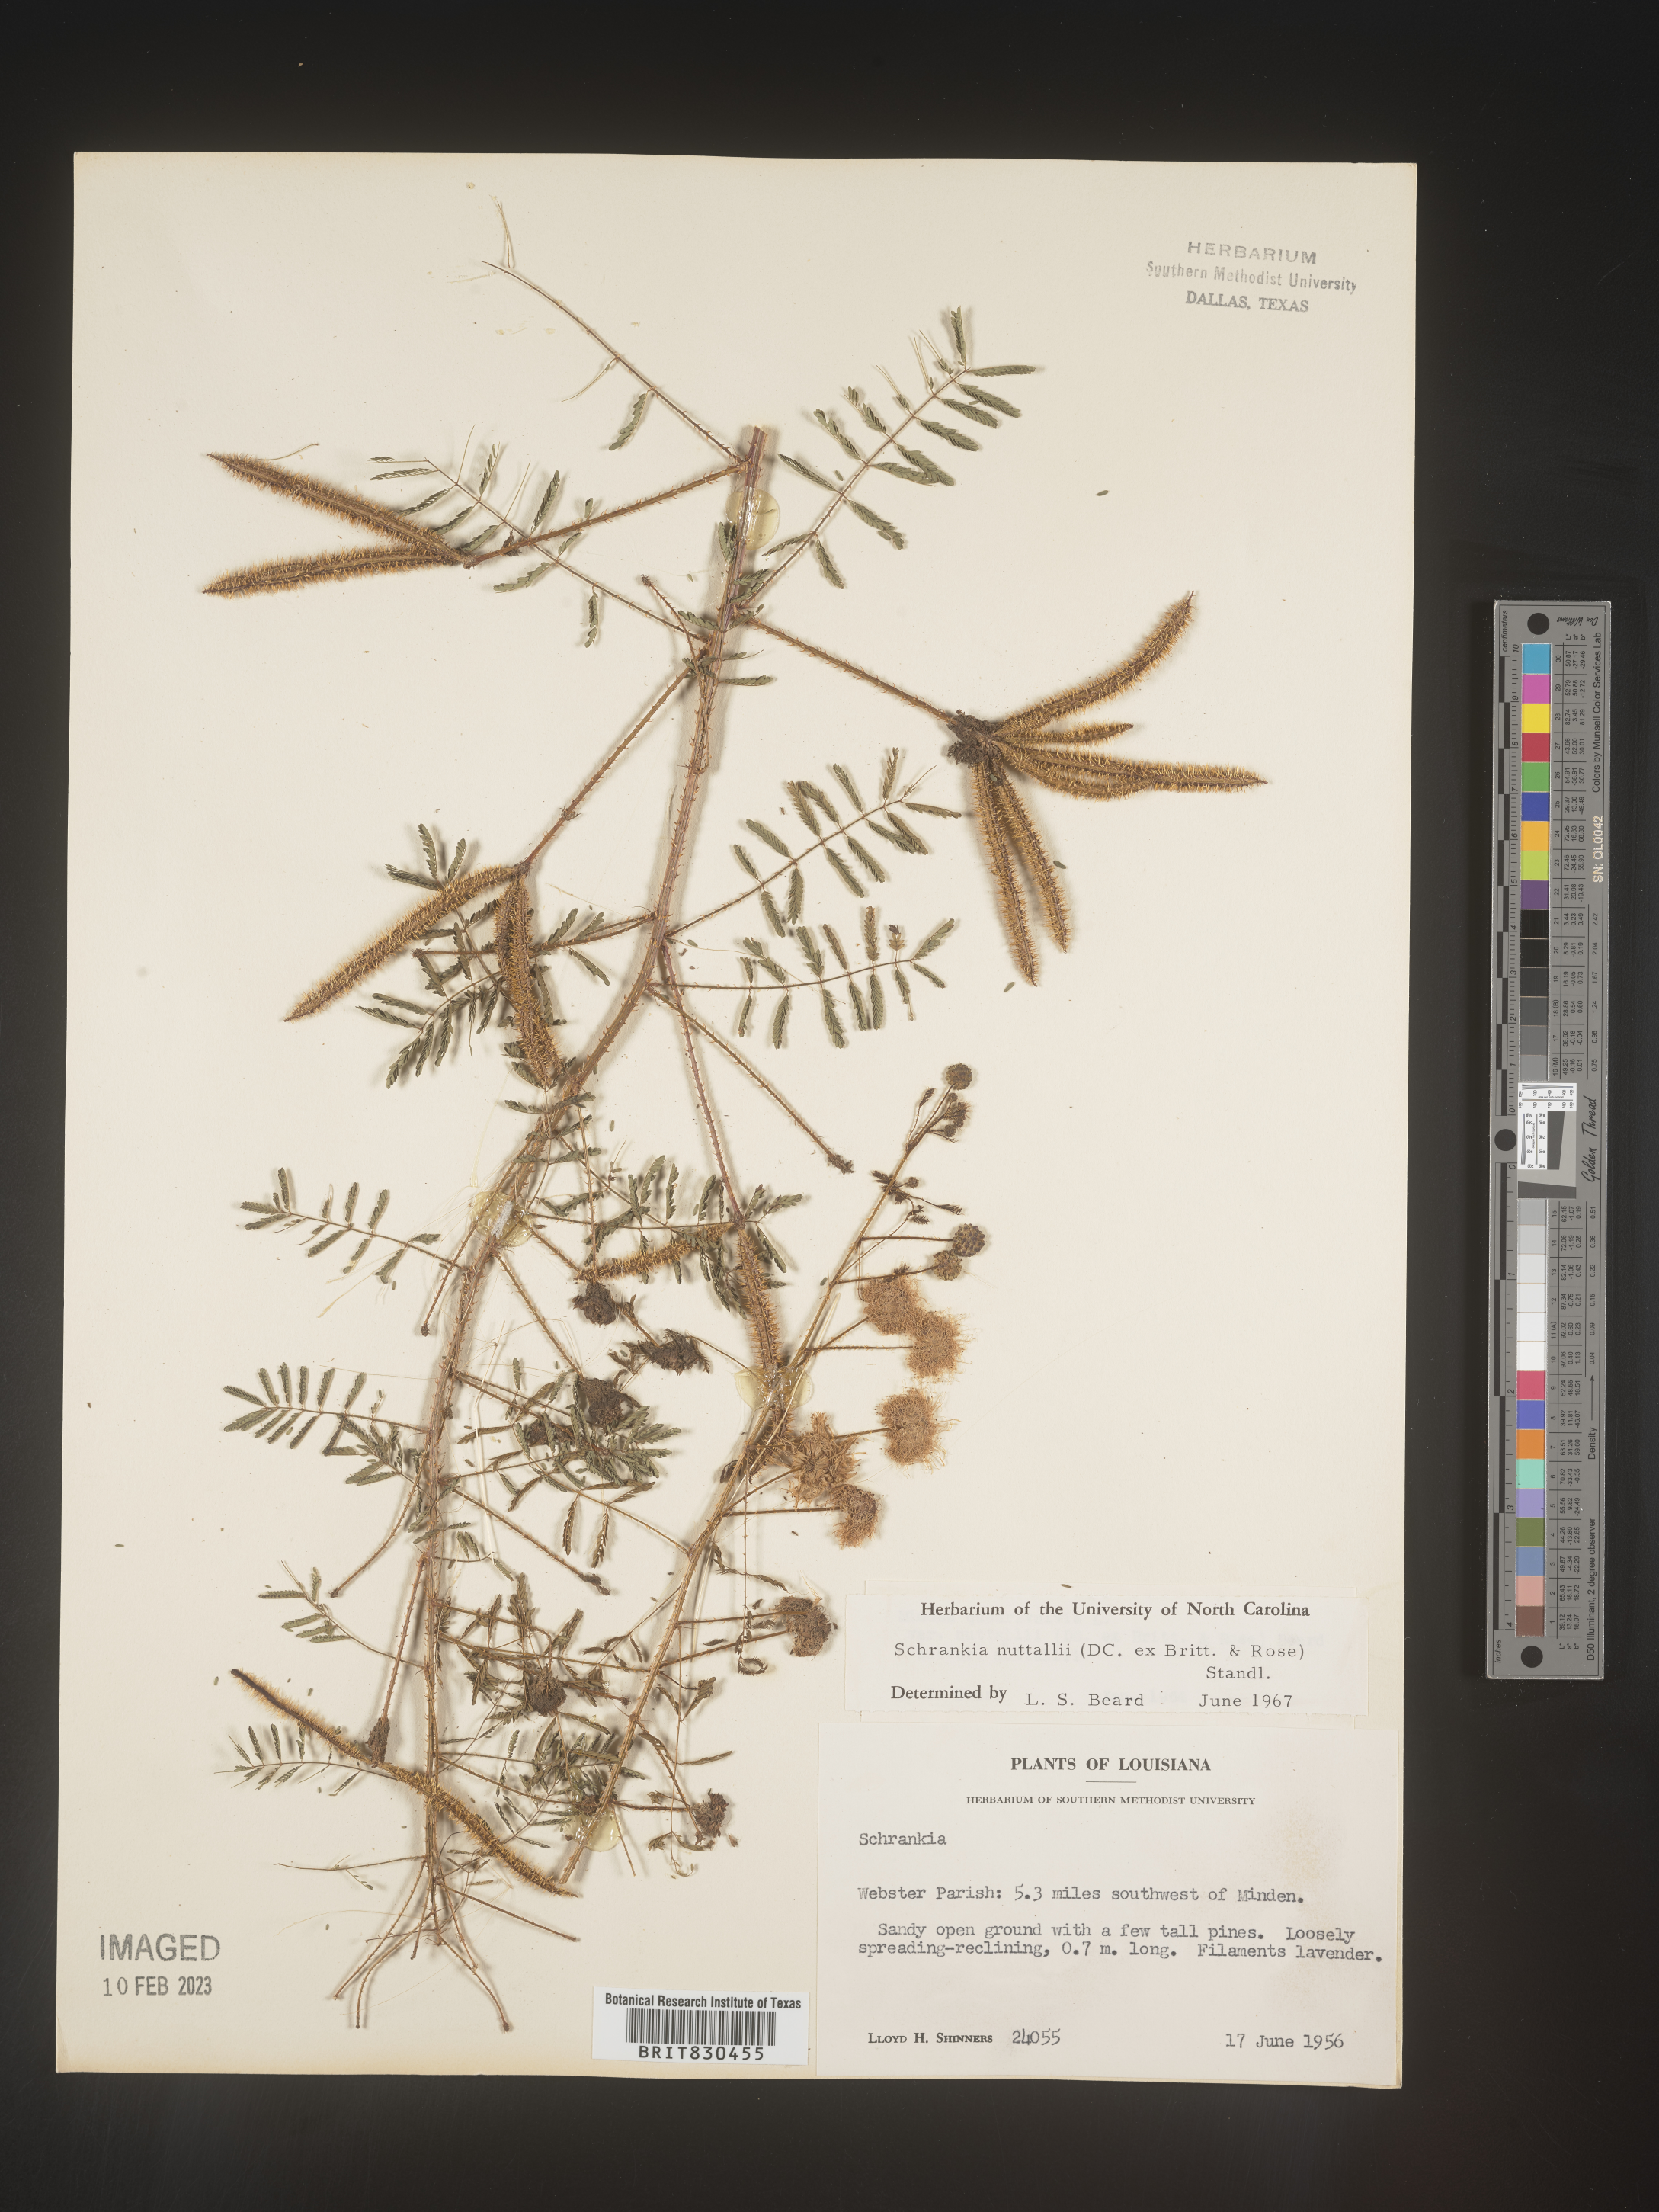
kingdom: Plantae
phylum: Tracheophyta
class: Magnoliopsida
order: Fabales
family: Fabaceae
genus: Mimosa
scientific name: Mimosa quadrivalvis
